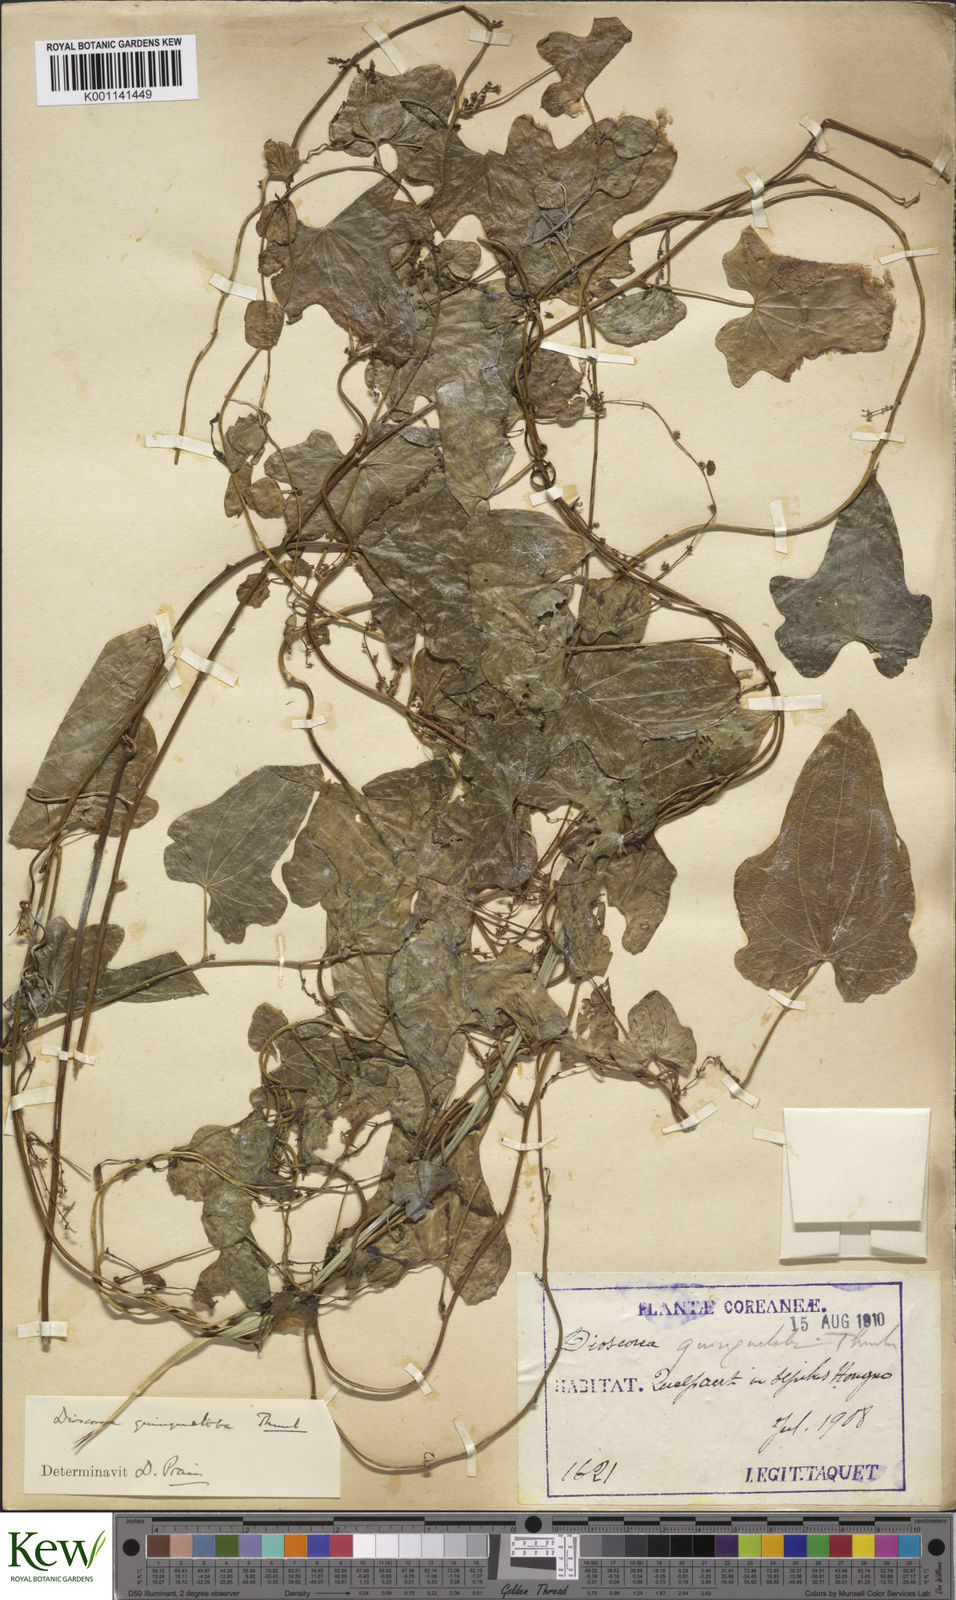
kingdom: Plantae
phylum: Tracheophyta
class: Liliopsida
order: Dioscoreales
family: Dioscoreaceae
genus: Dioscorea
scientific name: Dioscorea quinquelobata
